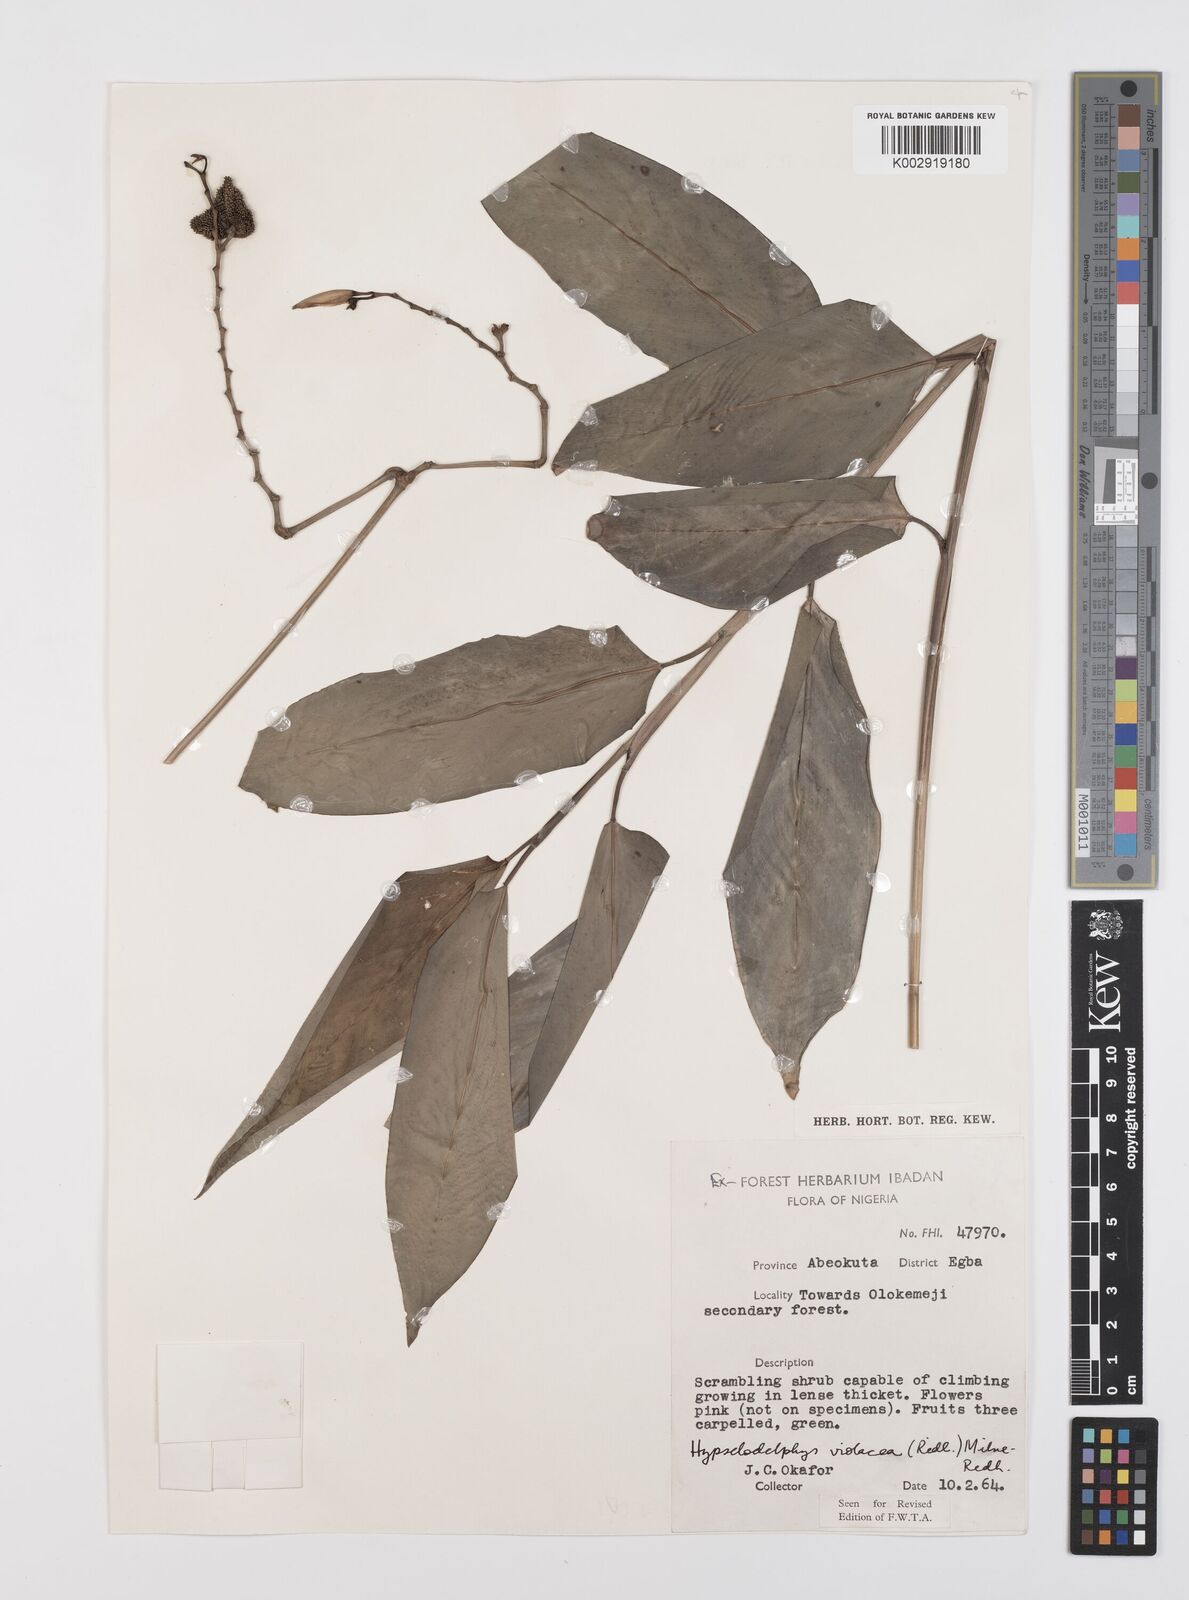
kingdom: Plantae
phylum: Tracheophyta
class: Liliopsida
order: Zingiberales
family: Marantaceae
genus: Hypselodelphys
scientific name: Hypselodelphys violacea
